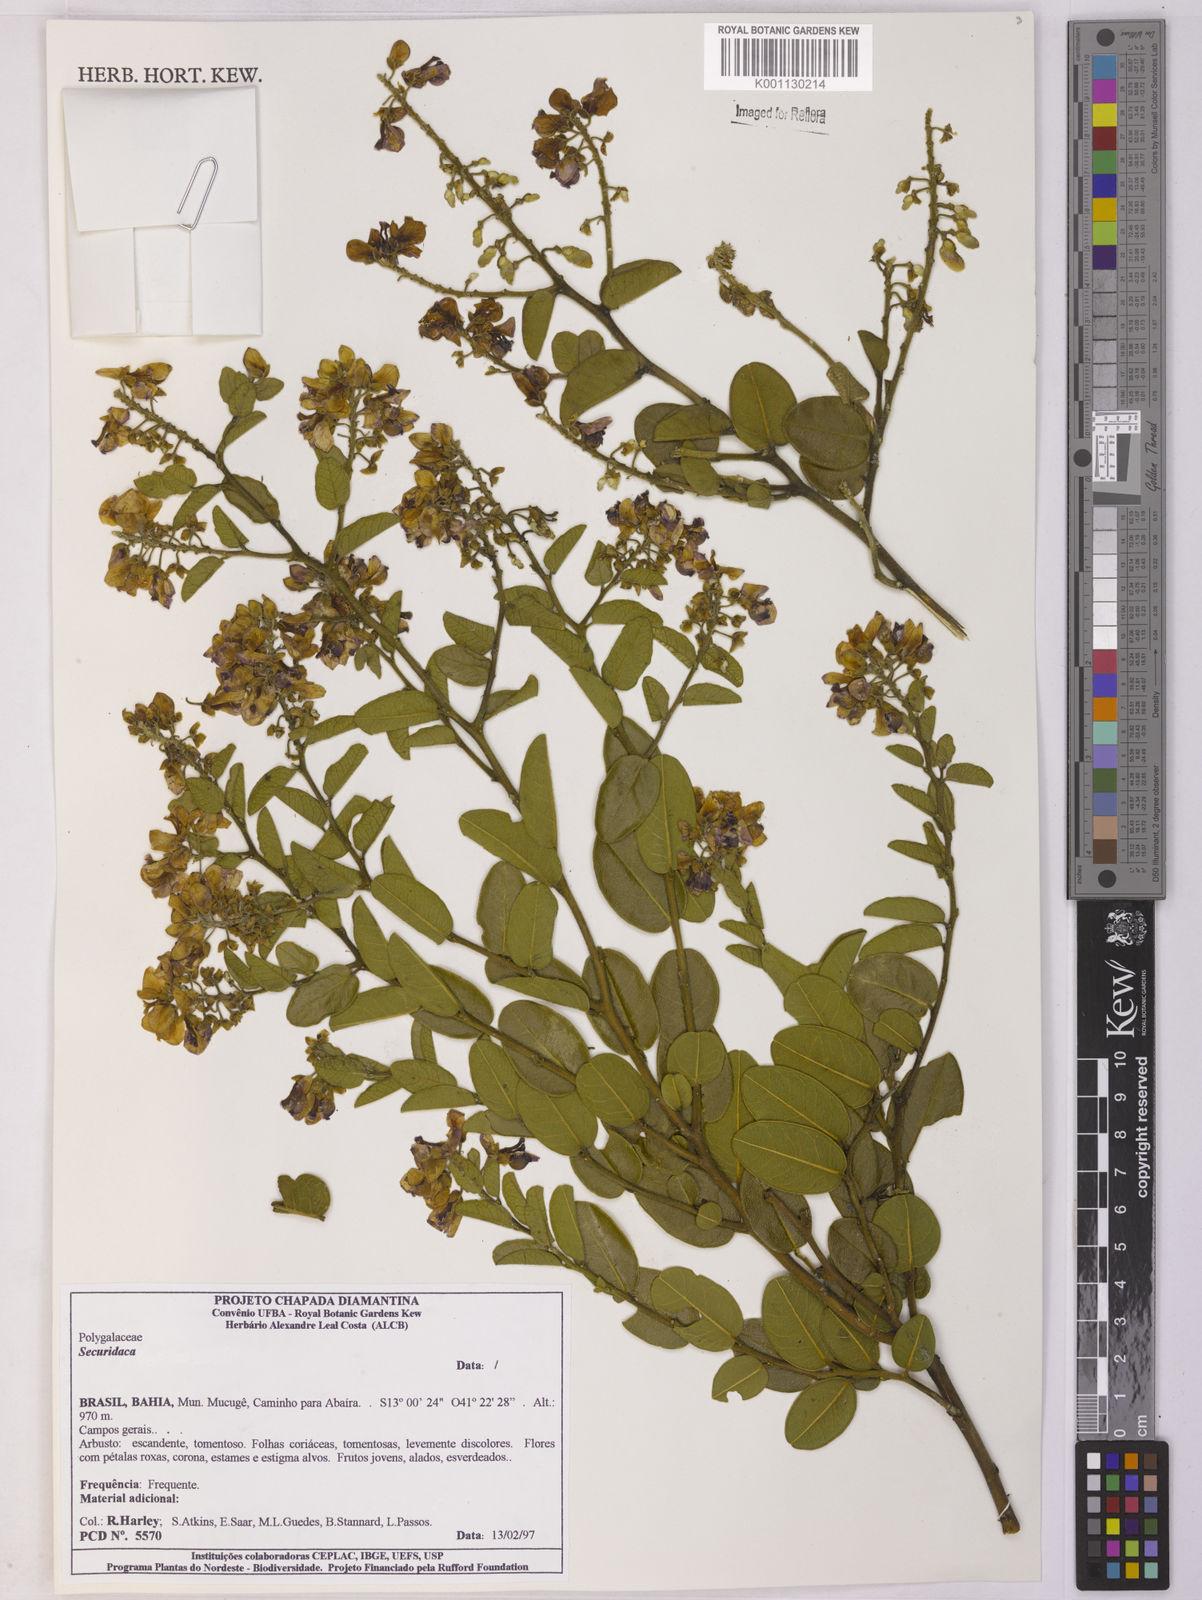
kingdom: Plantae
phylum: Tracheophyta
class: Magnoliopsida
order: Fabales
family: Polygalaceae
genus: Securidaca
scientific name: Securidaca
